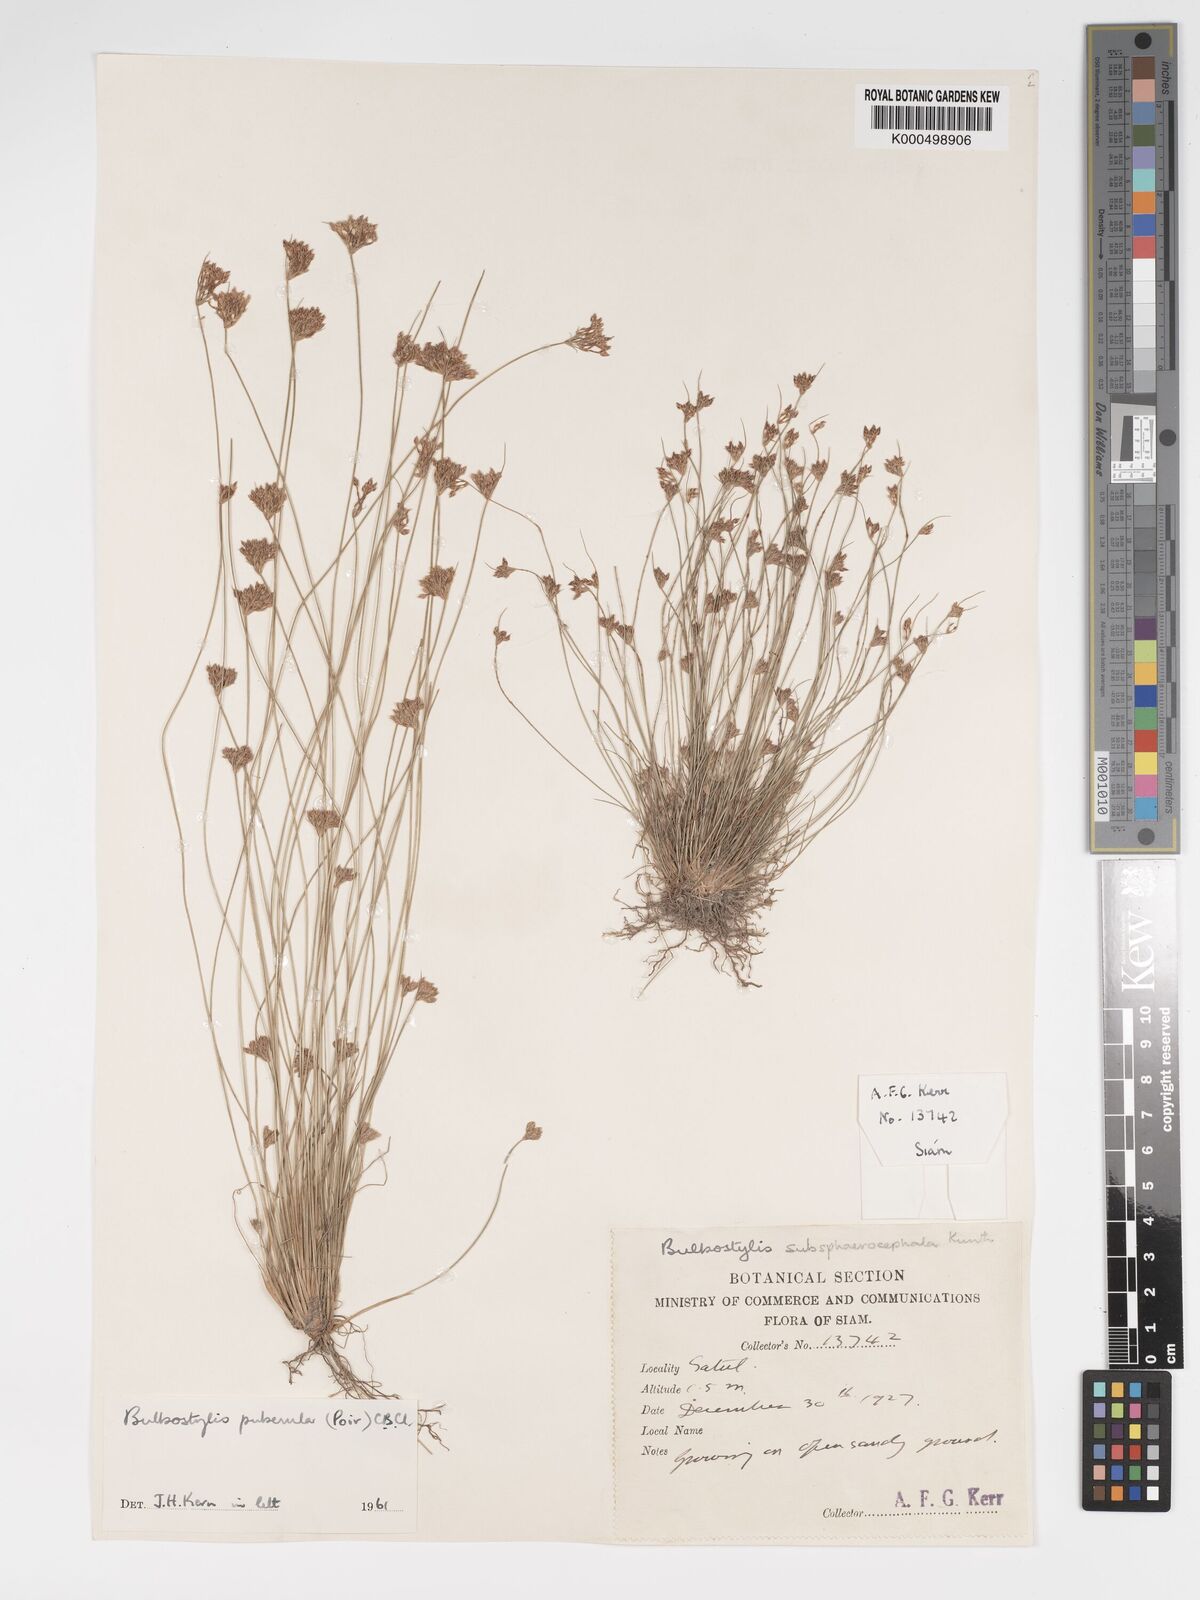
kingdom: Plantae
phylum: Tracheophyta
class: Liliopsida
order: Poales
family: Cyperaceae
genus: Bulbostylis
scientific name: Bulbostylis thouarsii
